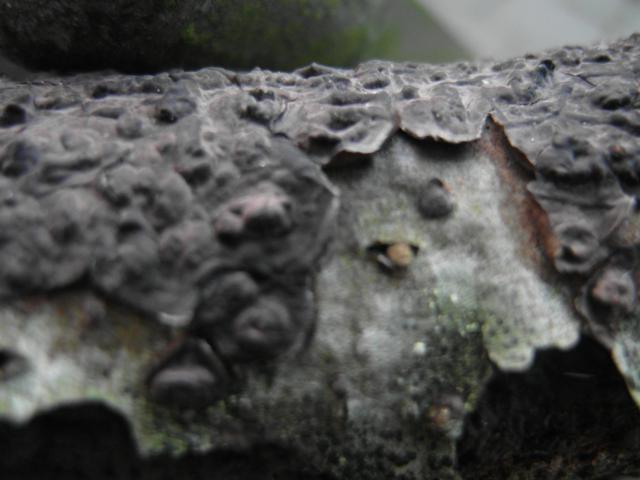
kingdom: Fungi
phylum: Basidiomycota
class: Agaricomycetes
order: Russulales
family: Peniophoraceae
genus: Peniophora
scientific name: Peniophora rufomarginata
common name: linde-voksskind
